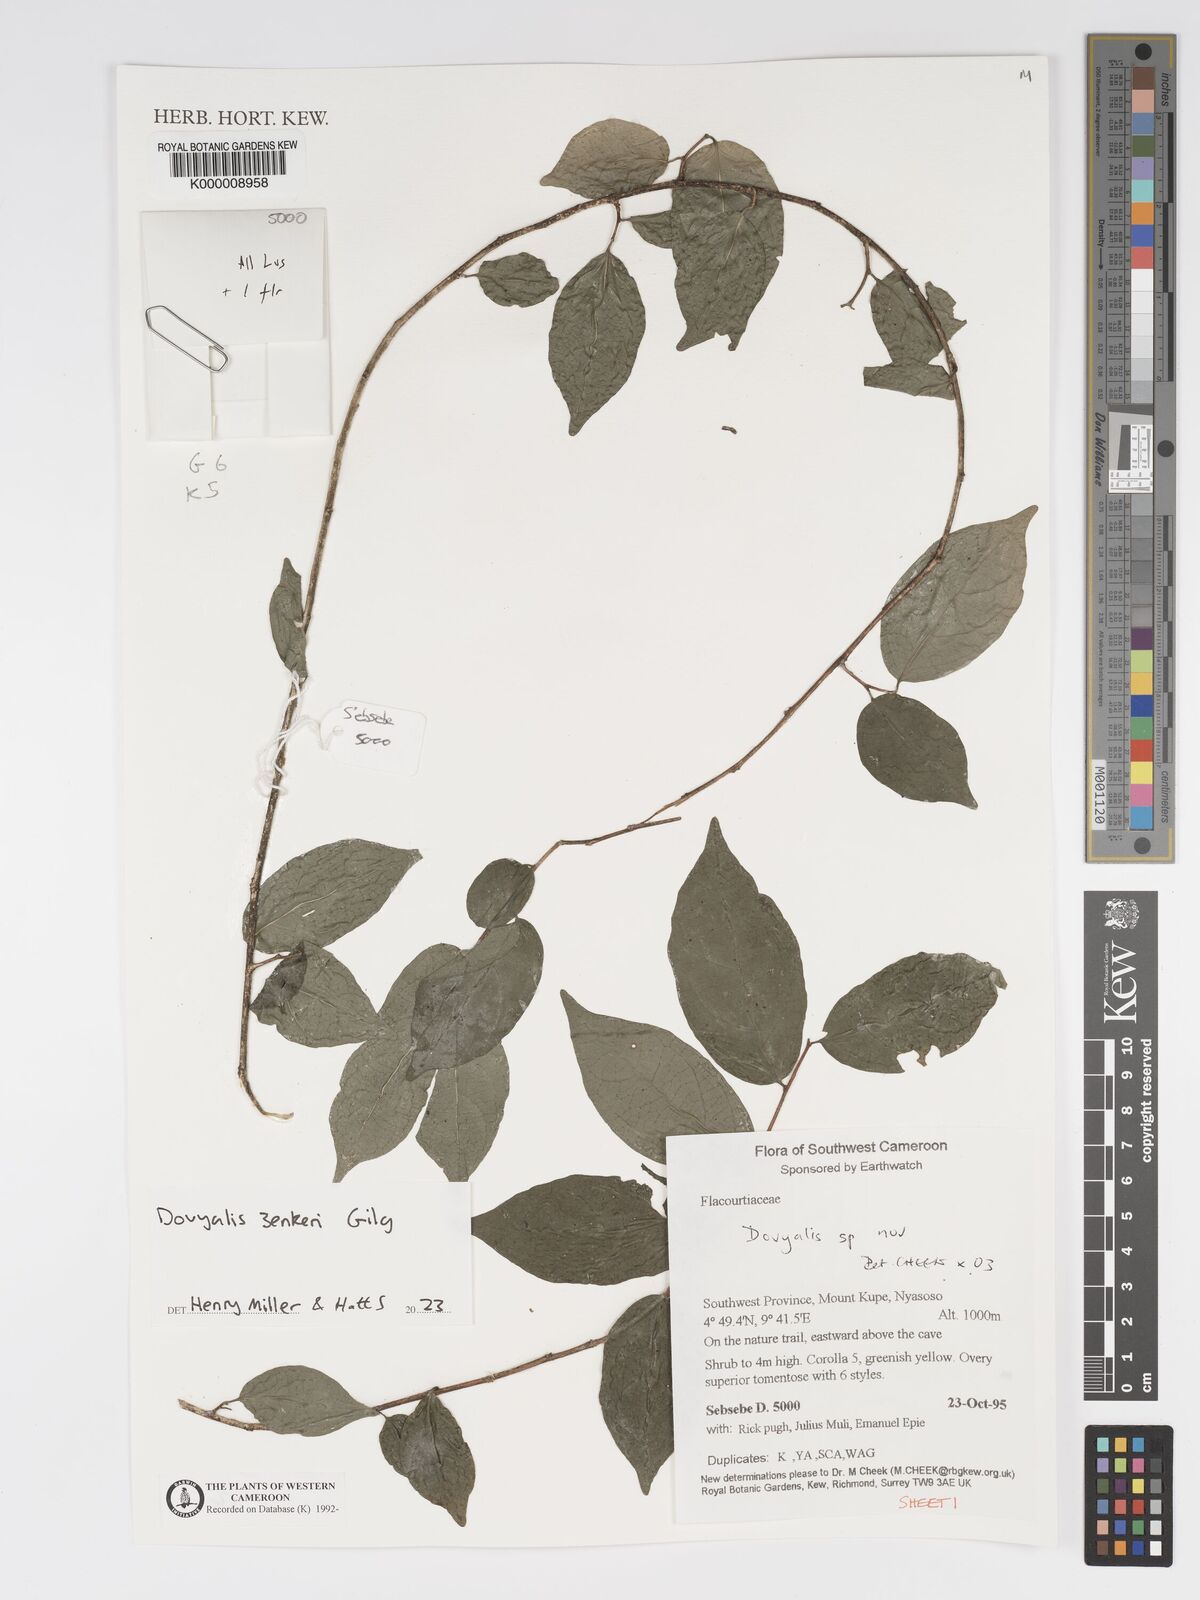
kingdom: Plantae
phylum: Tracheophyta
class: Magnoliopsida
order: Malpighiales
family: Salicaceae
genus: Dovyalis
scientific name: Dovyalis
